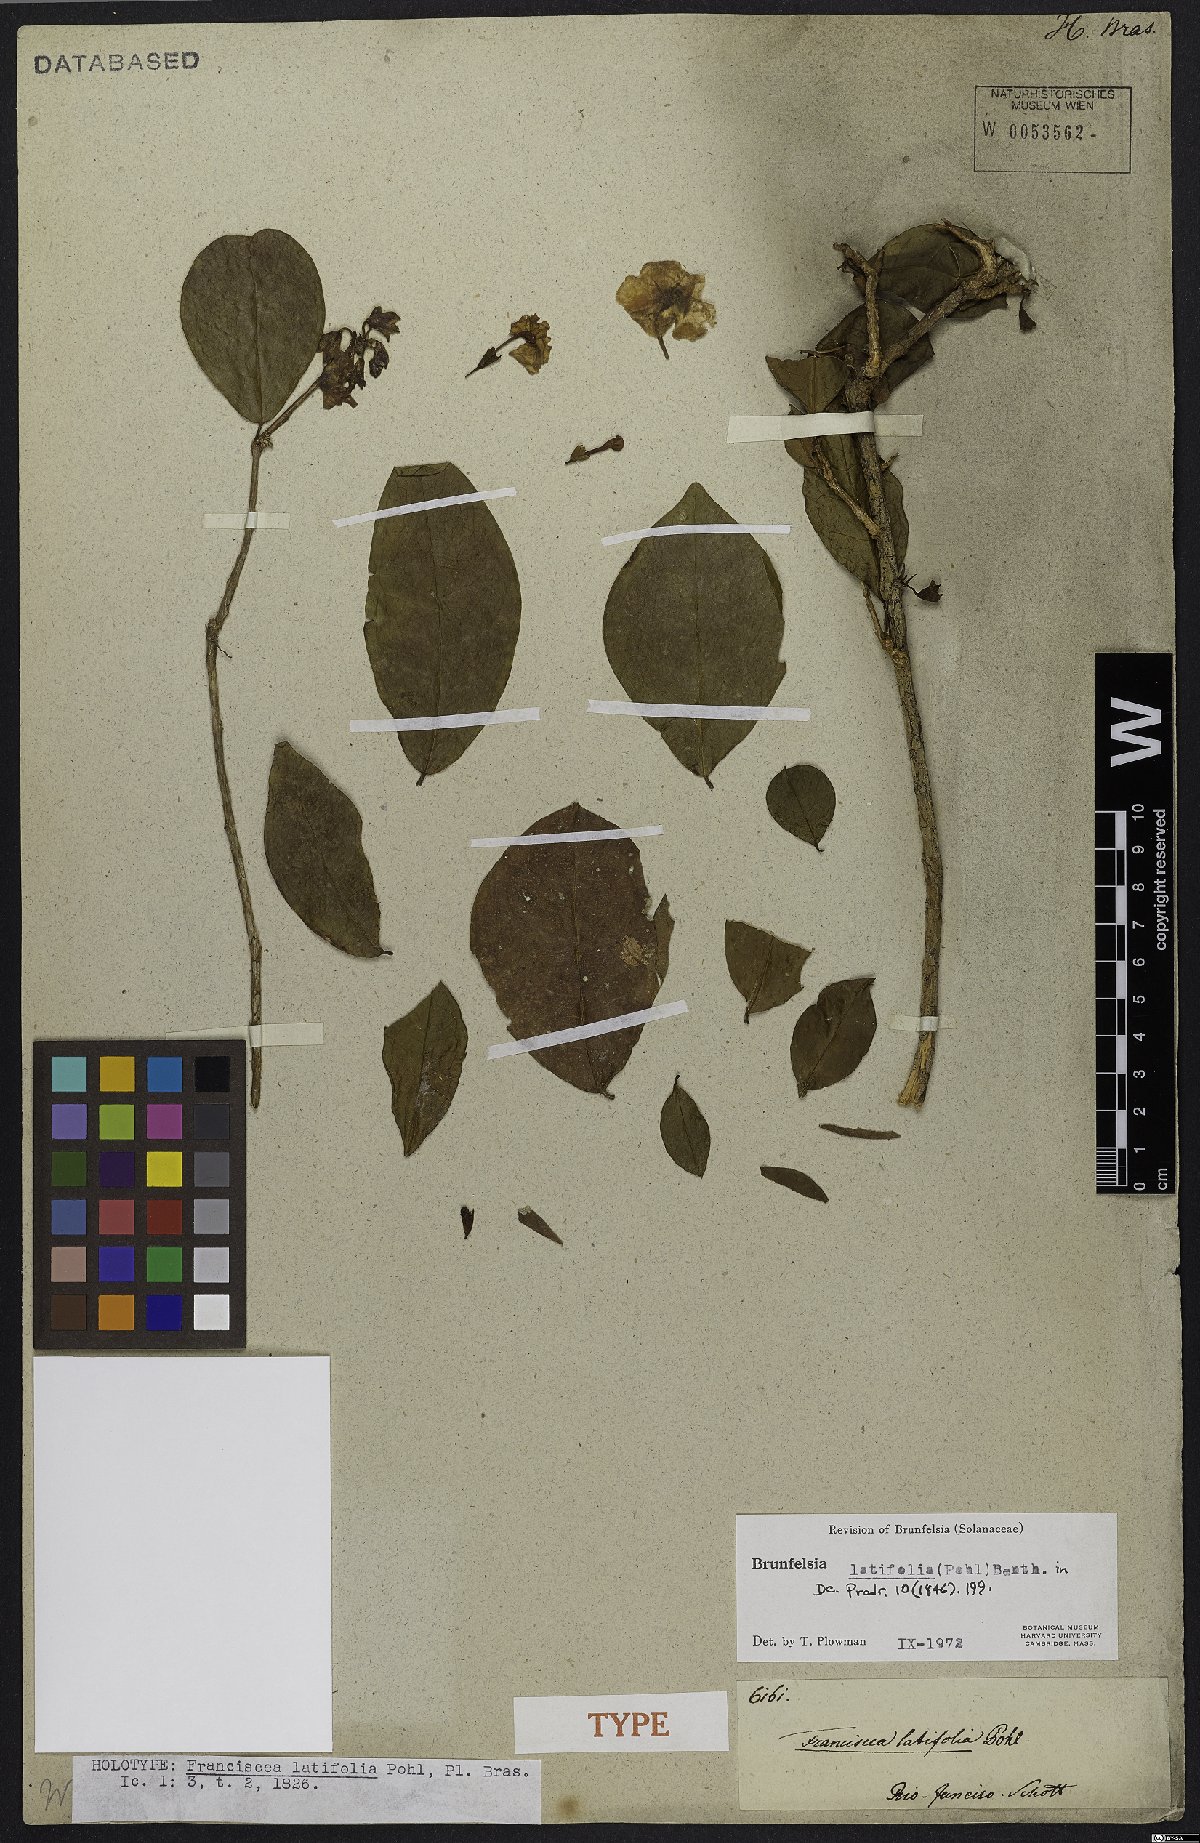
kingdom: Plantae
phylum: Tracheophyta
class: Magnoliopsida
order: Solanales
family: Solanaceae
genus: Brunfelsia
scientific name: Brunfelsia latifolia
